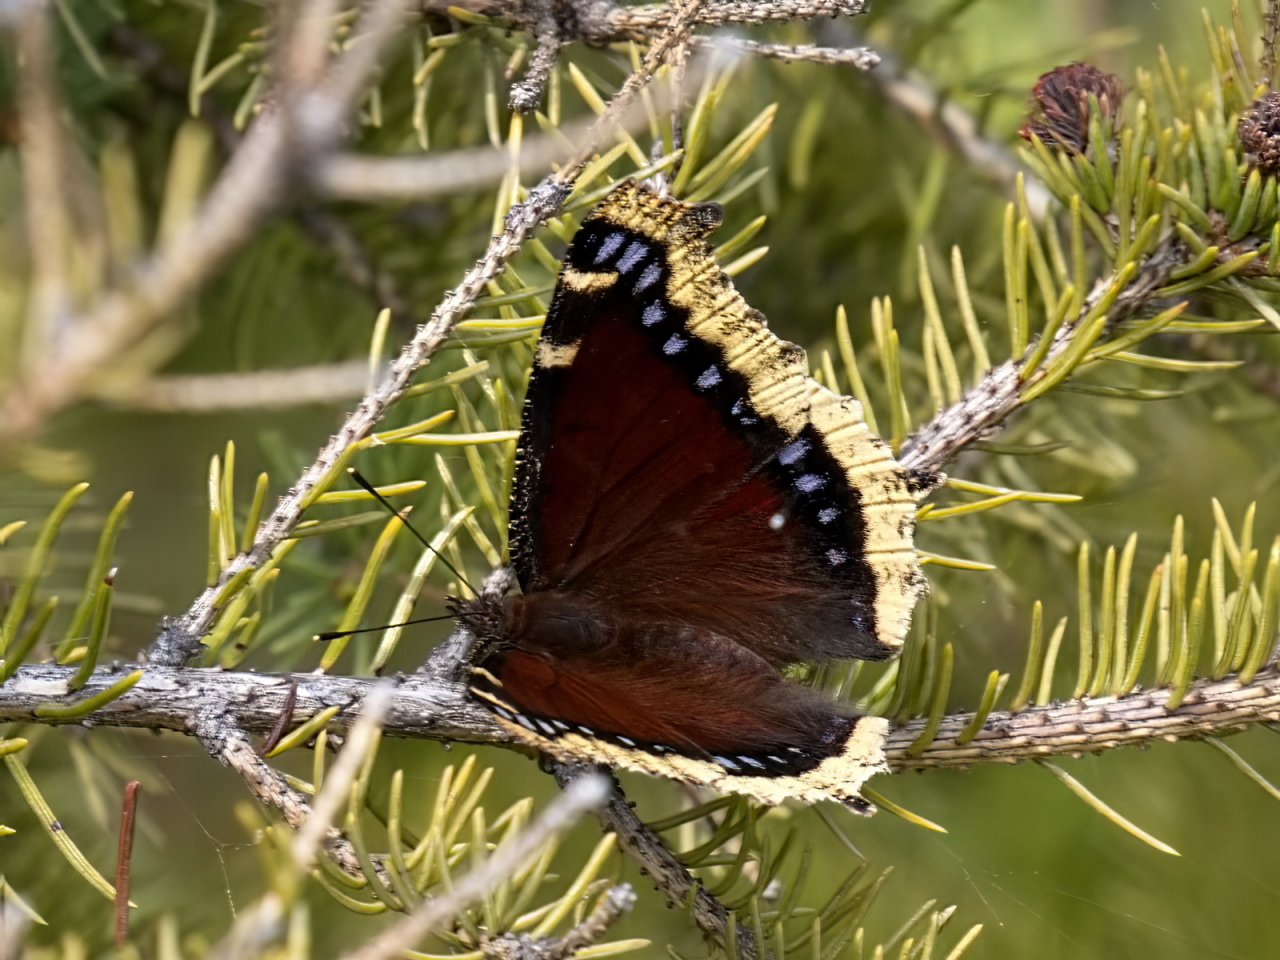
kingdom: Animalia
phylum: Arthropoda
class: Insecta
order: Lepidoptera
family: Nymphalidae
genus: Nymphalis
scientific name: Nymphalis antiopa
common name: Mourning Cloak
